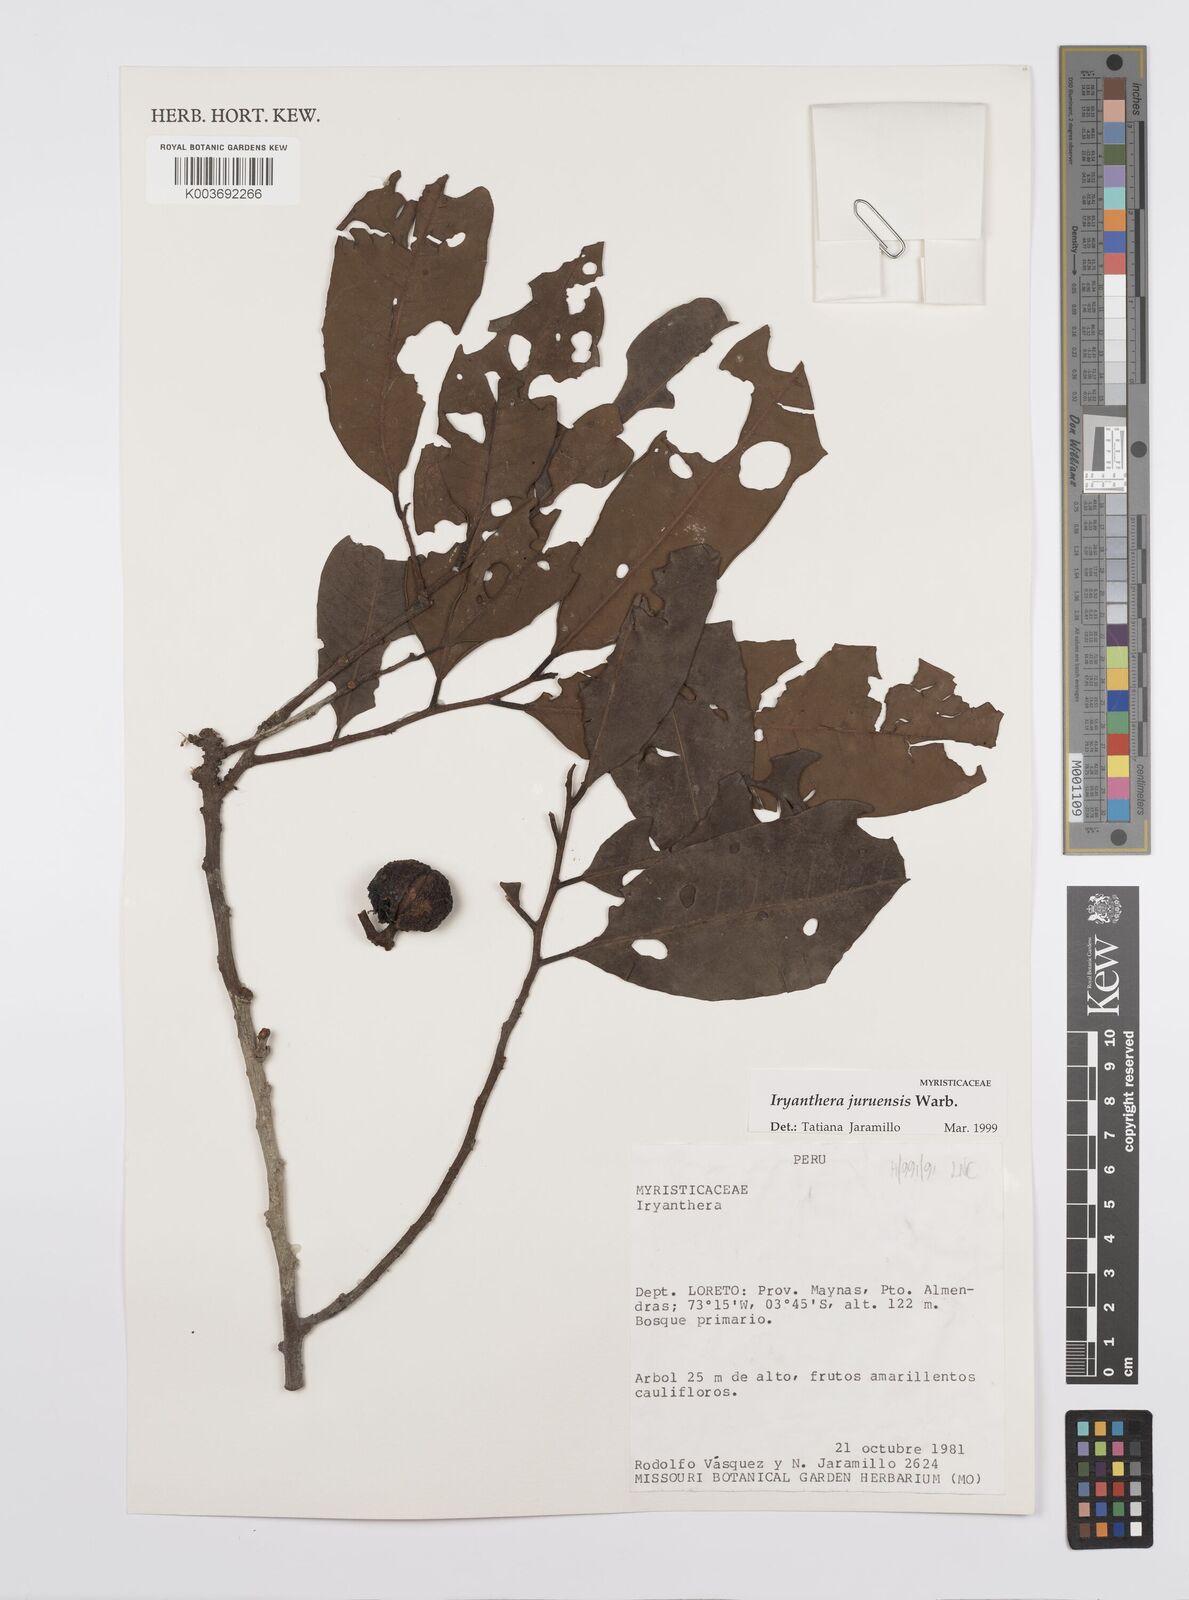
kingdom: Plantae
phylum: Tracheophyta
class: Magnoliopsida
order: Magnoliales
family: Myristicaceae
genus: Iryanthera
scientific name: Iryanthera juruensis
